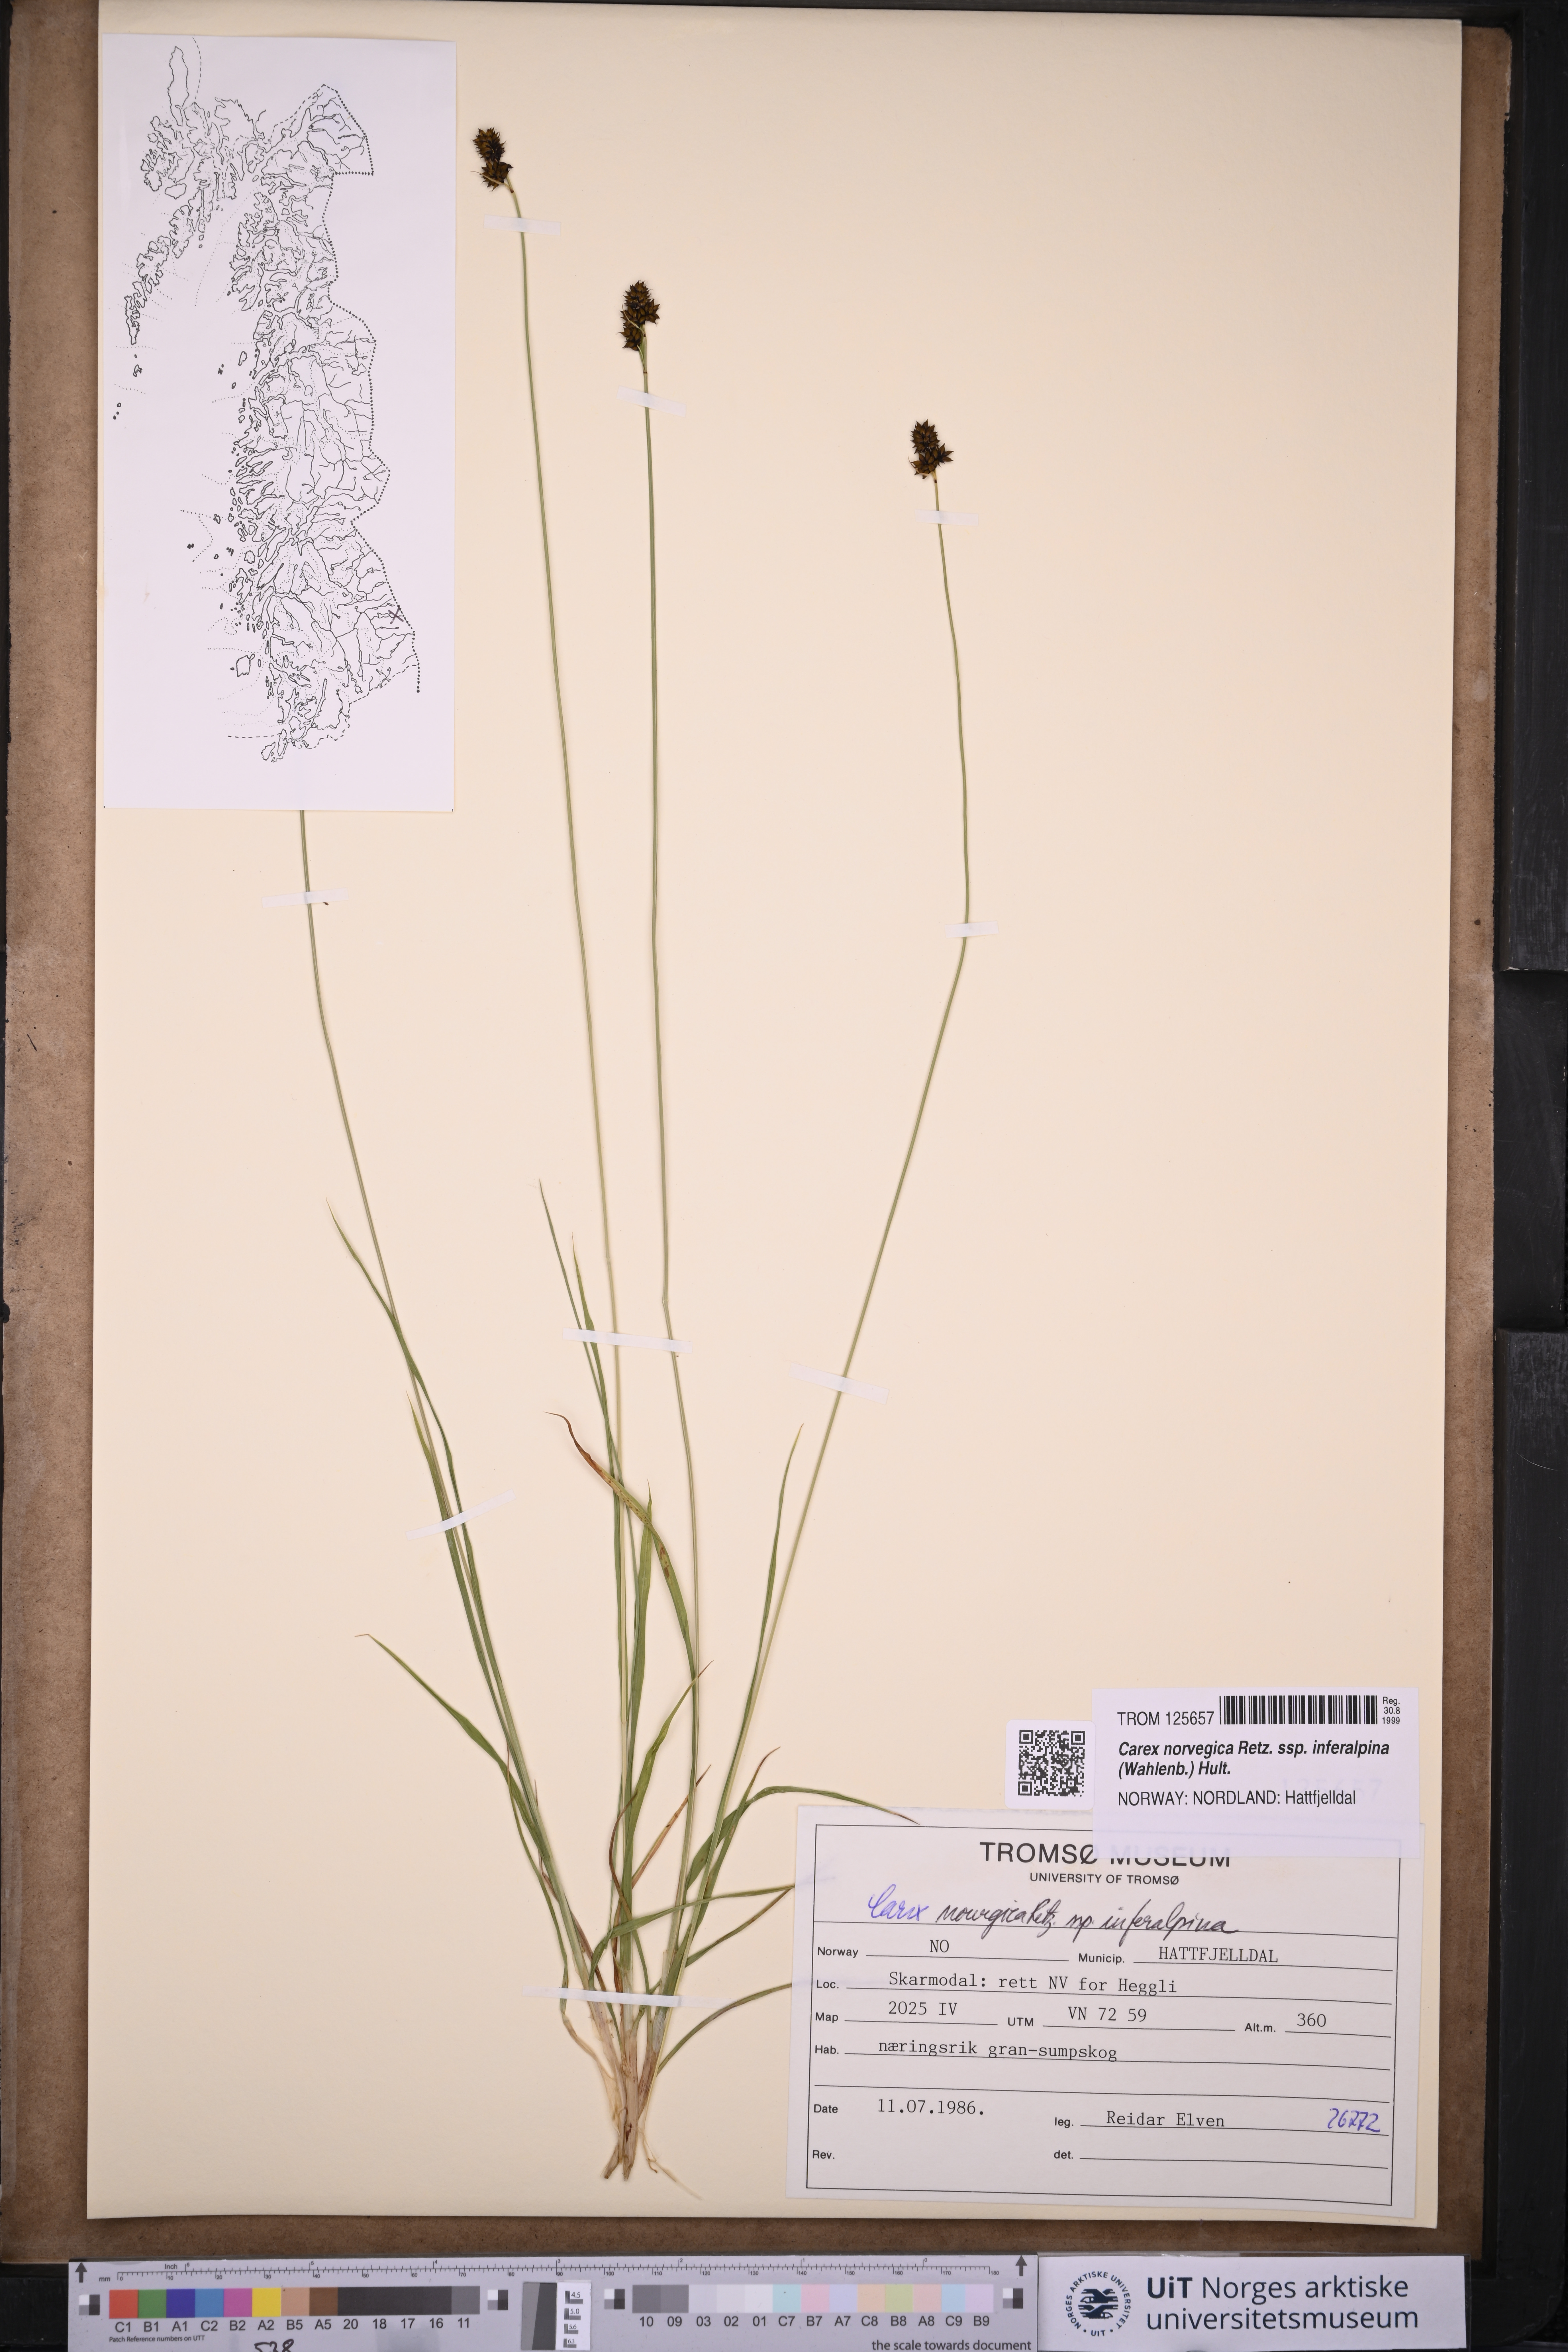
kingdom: Plantae
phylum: Tracheophyta
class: Liliopsida
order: Poales
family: Cyperaceae
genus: Carex
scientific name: Carex media
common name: Alpine sedge
